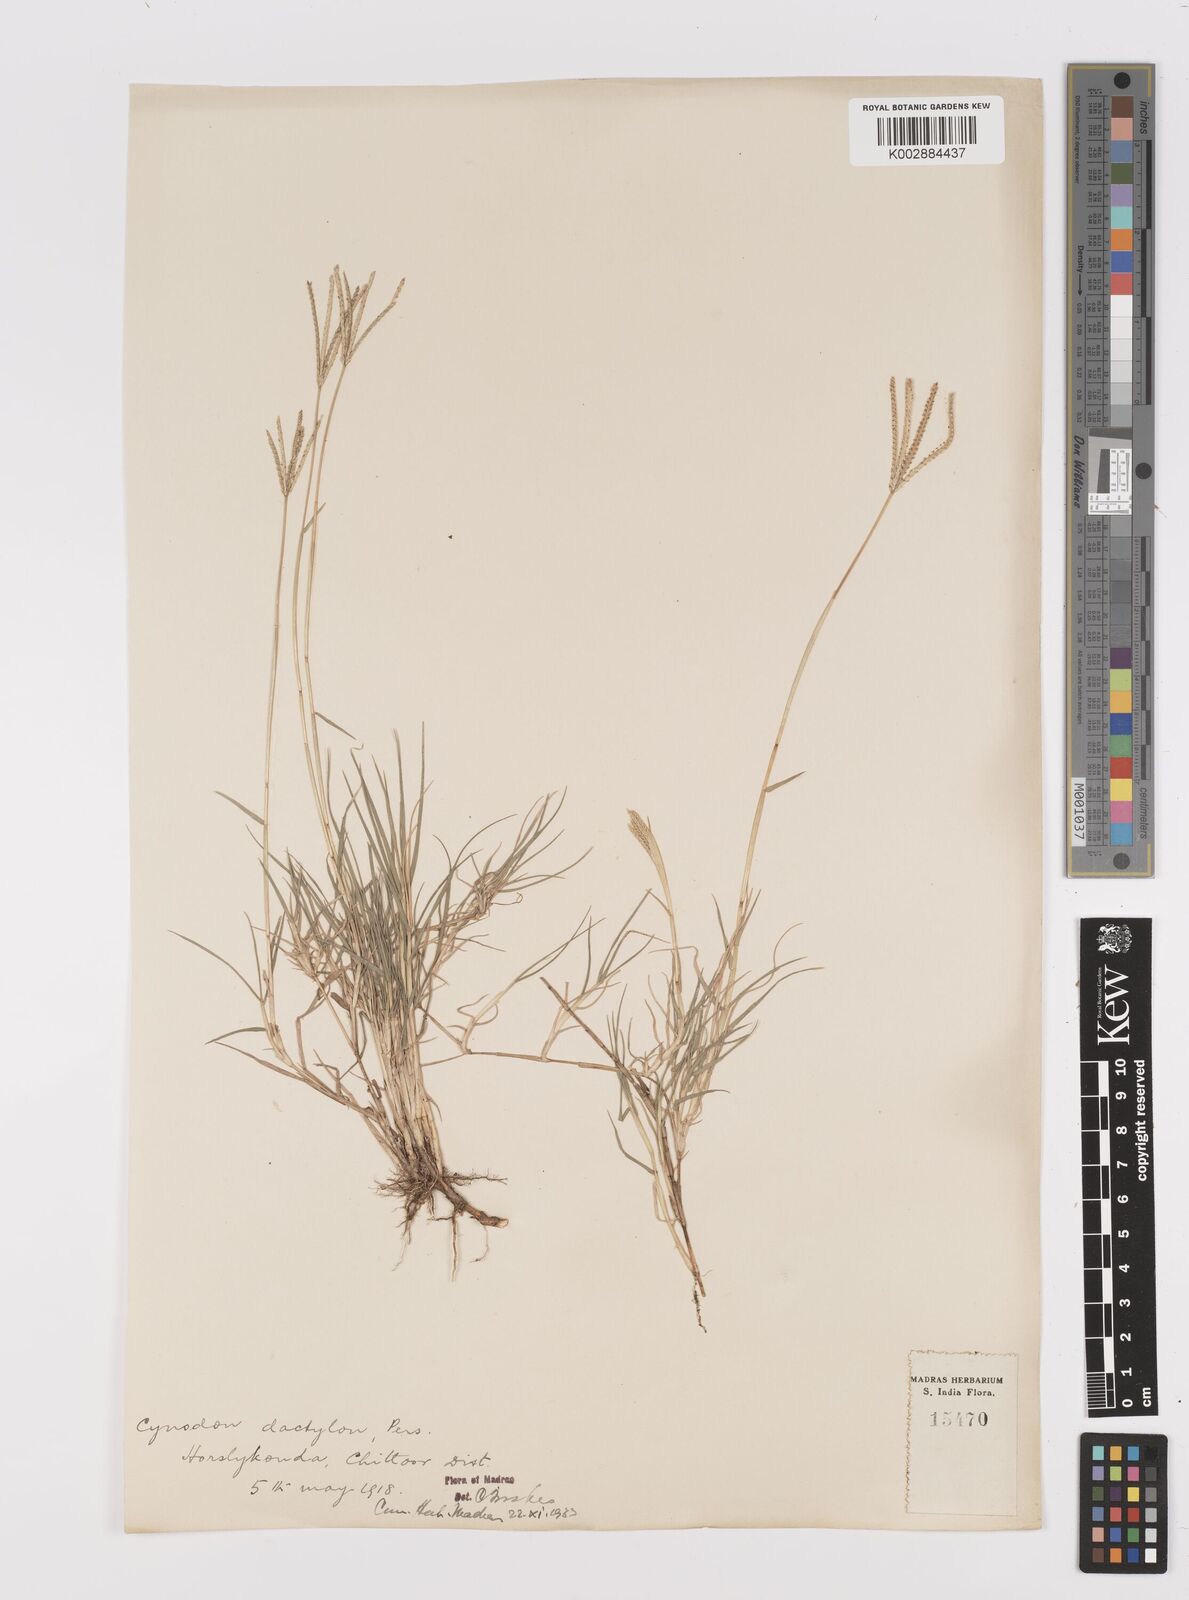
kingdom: Plantae
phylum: Tracheophyta
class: Liliopsida
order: Poales
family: Poaceae
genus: Cynodon
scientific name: Cynodon dactylon
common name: Bermuda grass
